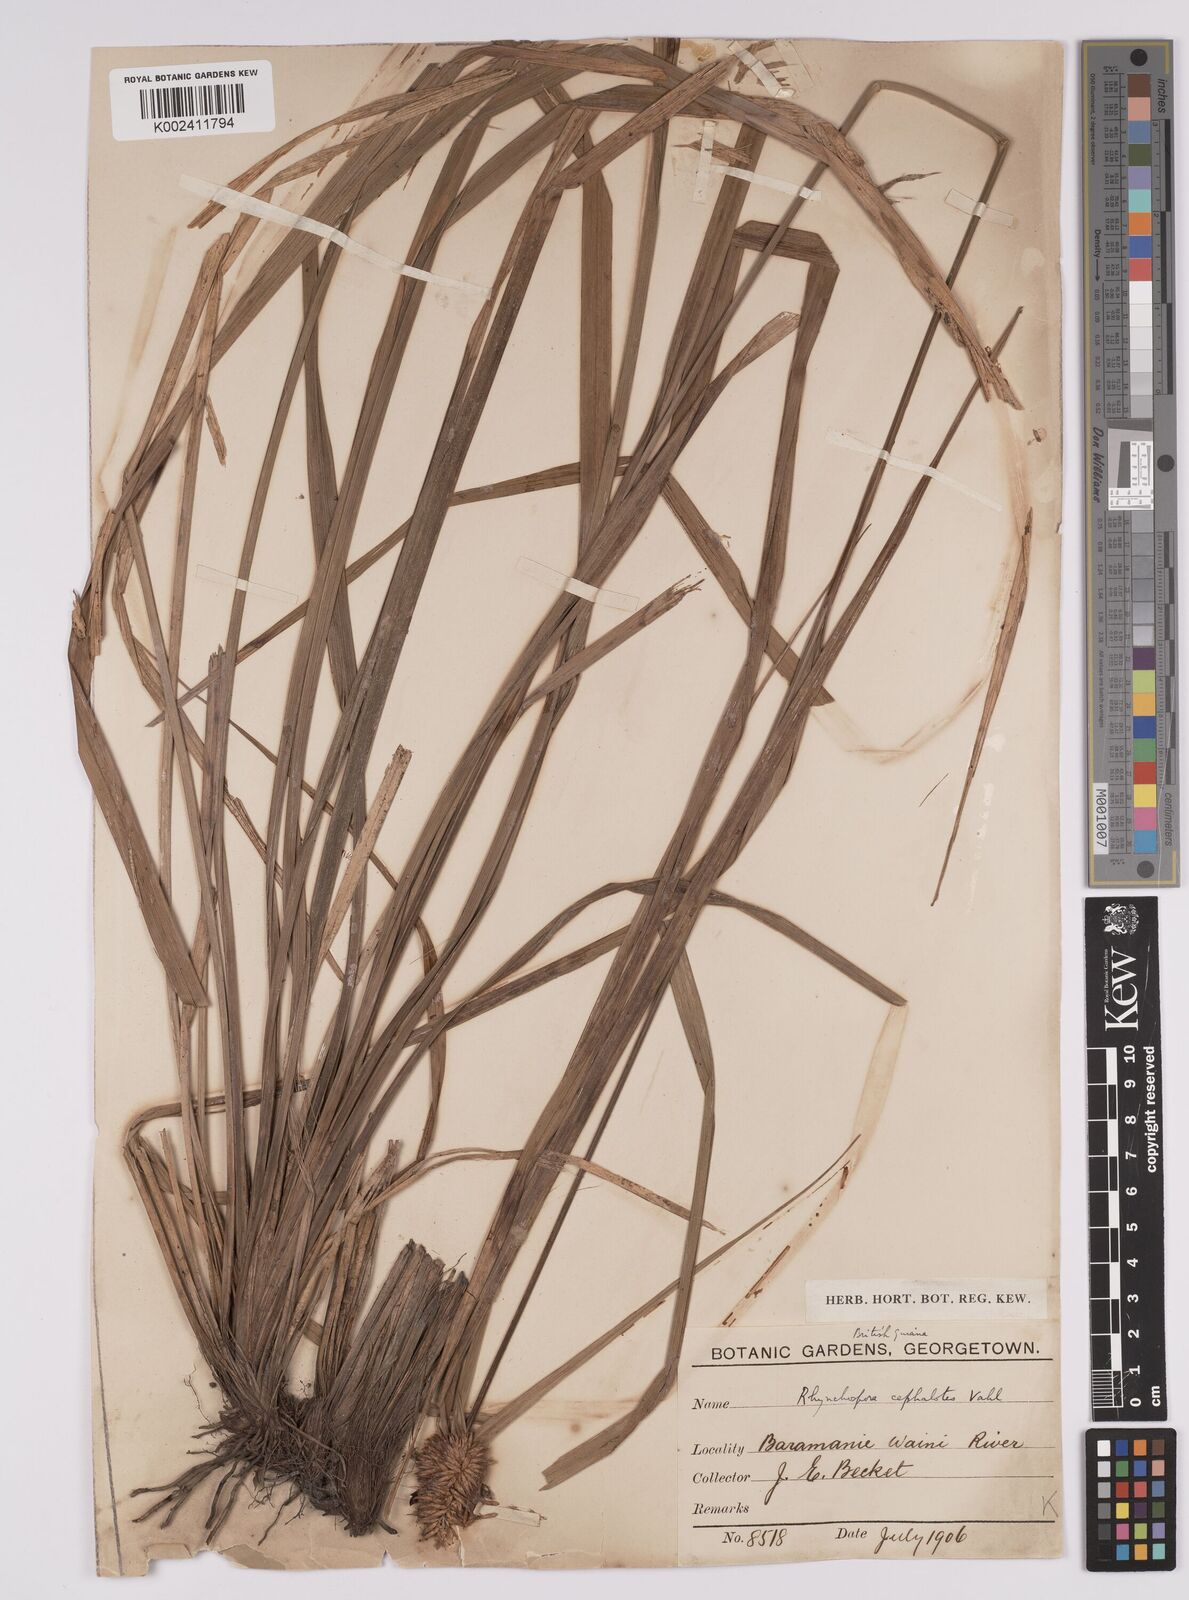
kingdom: Plantae
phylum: Tracheophyta
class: Liliopsida
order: Poales
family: Cyperaceae
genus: Rhynchospora
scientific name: Rhynchospora cephalotes
